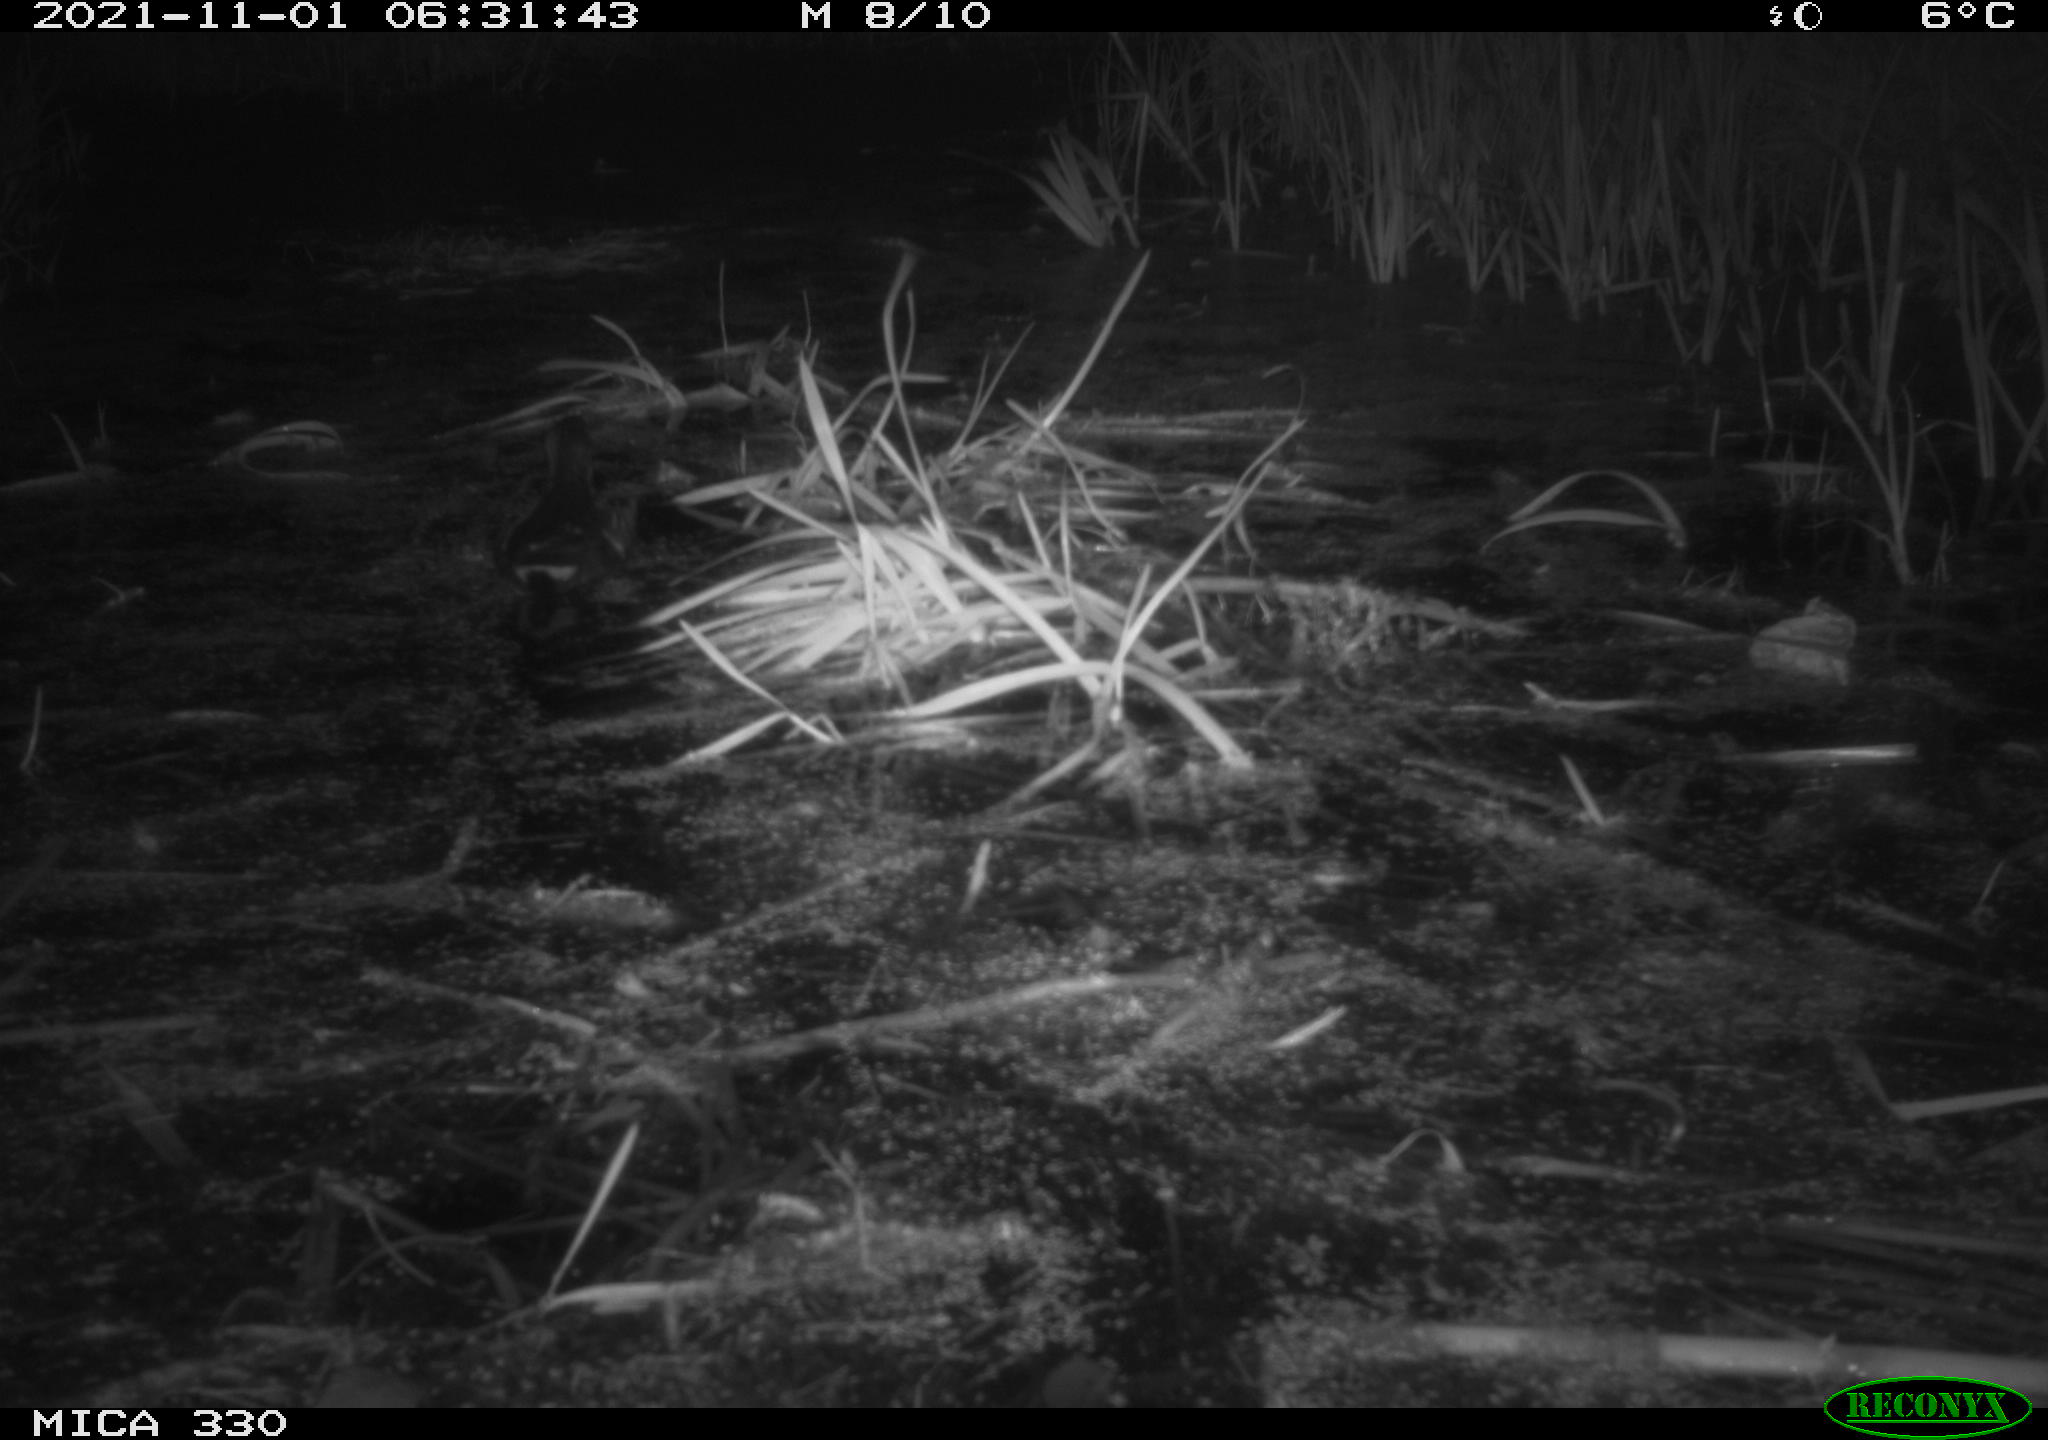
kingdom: Animalia
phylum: Chordata
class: Aves
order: Gruiformes
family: Rallidae
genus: Gallinula
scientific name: Gallinula chloropus
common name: Common moorhen
